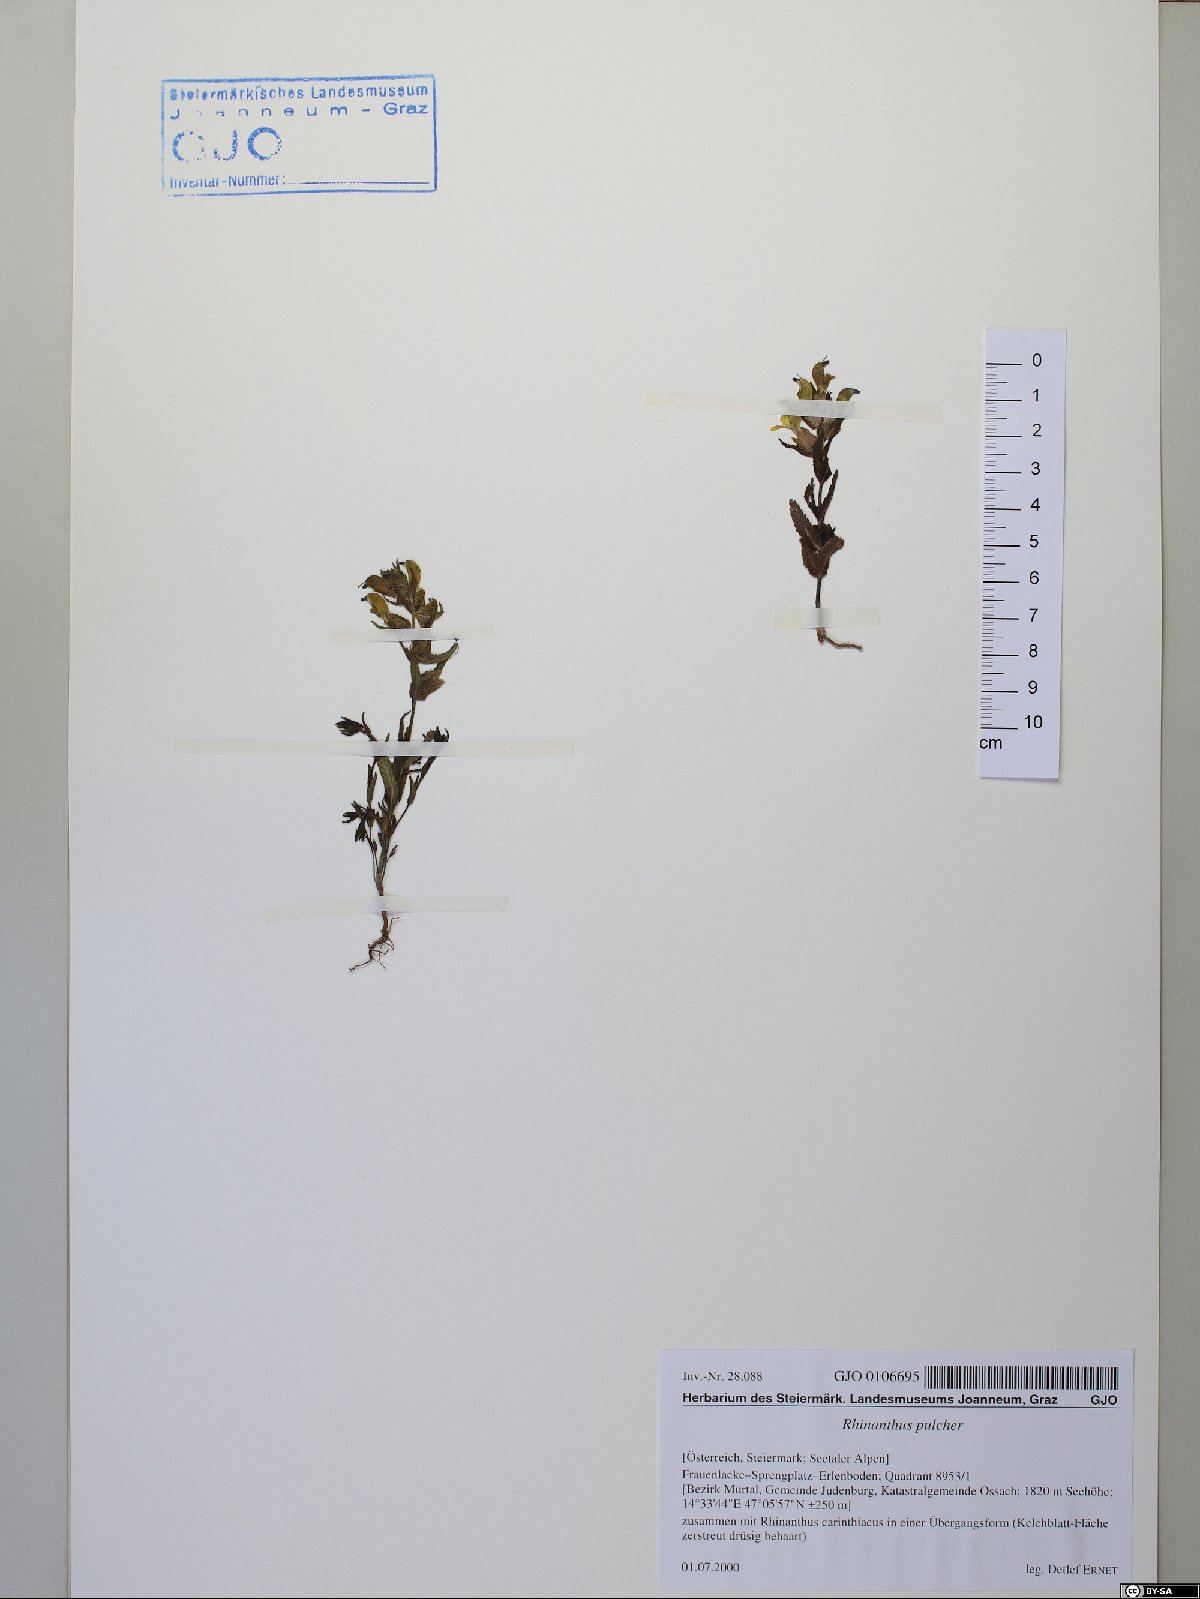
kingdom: Plantae
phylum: Tracheophyta
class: Magnoliopsida
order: Lamiales
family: Orobanchaceae
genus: Rhinanthus
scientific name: Rhinanthus riphaeus
